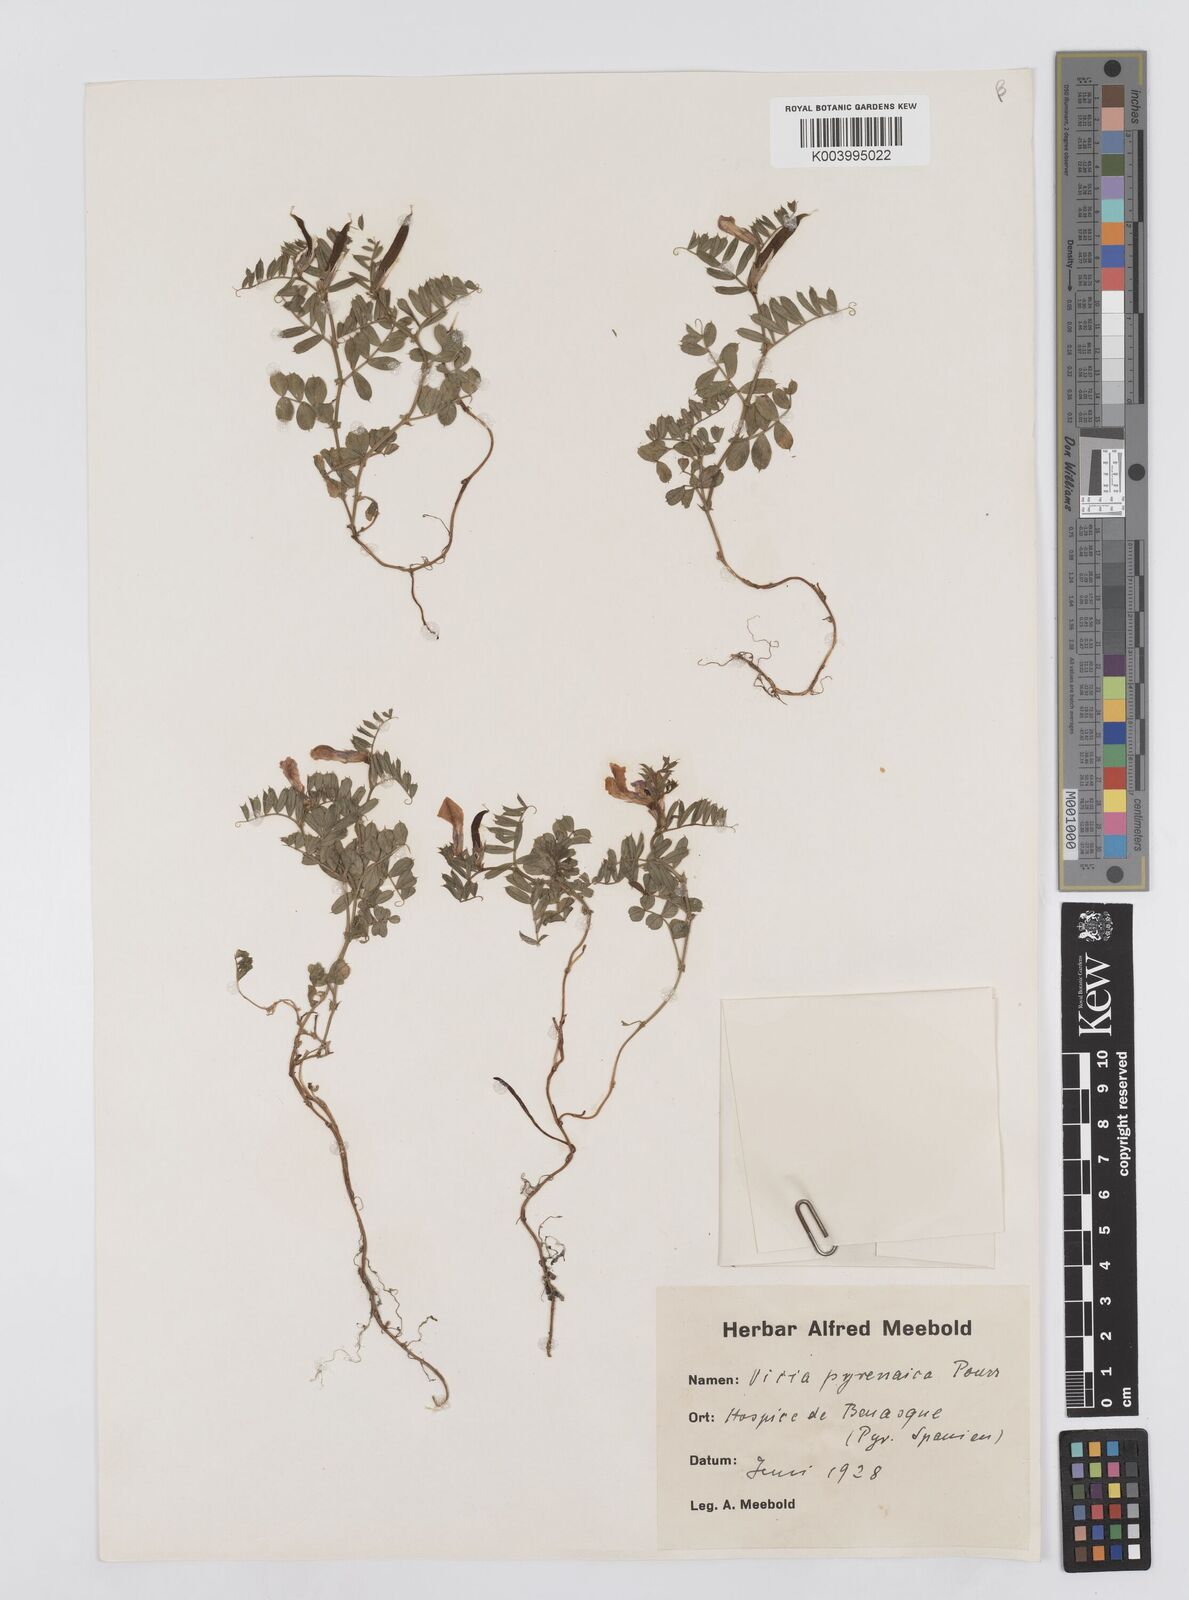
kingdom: Plantae
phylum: Tracheophyta
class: Magnoliopsida
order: Fabales
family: Fabaceae
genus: Vicia
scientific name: Vicia pyrenaica
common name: Pyrenean vetch
